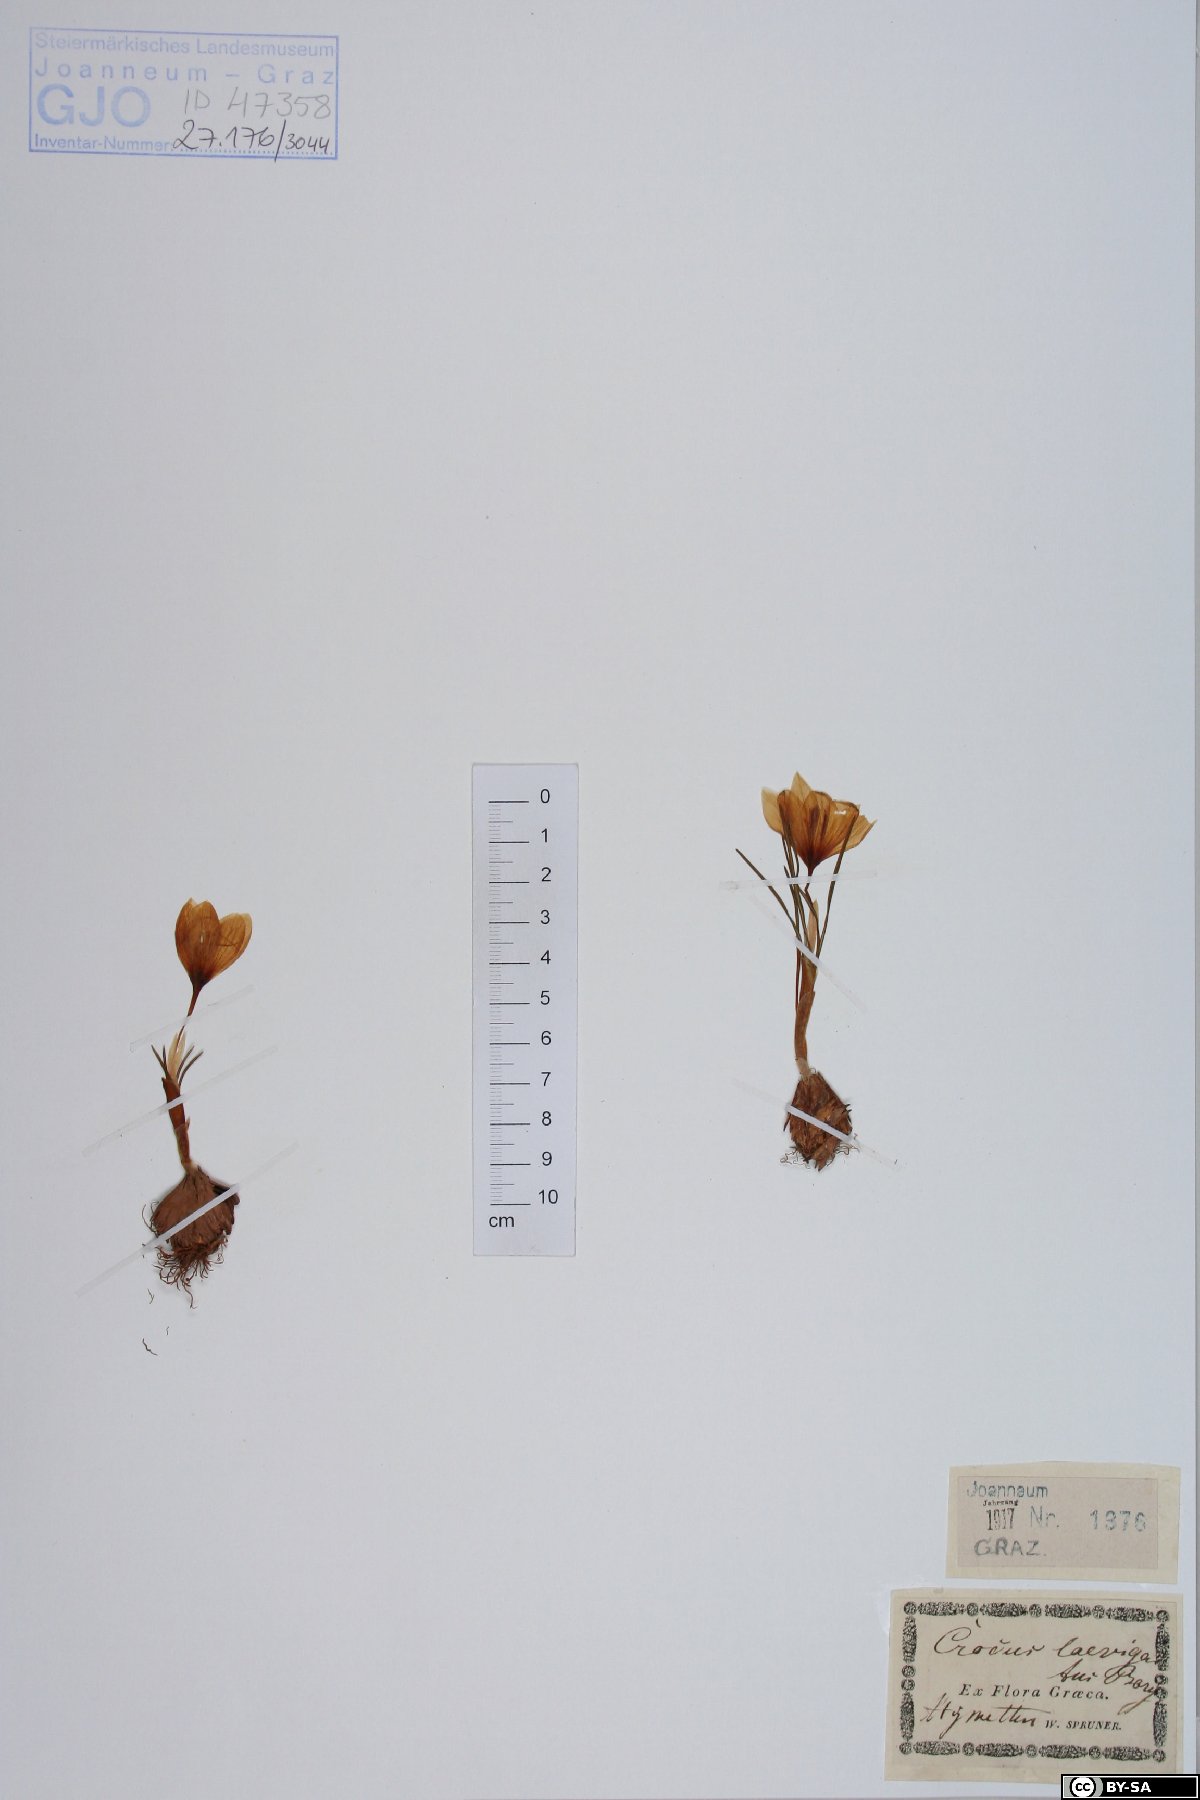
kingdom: Plantae
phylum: Tracheophyta
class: Liliopsida
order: Asparagales
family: Iridaceae
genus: Crocus
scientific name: Crocus laevigatus
